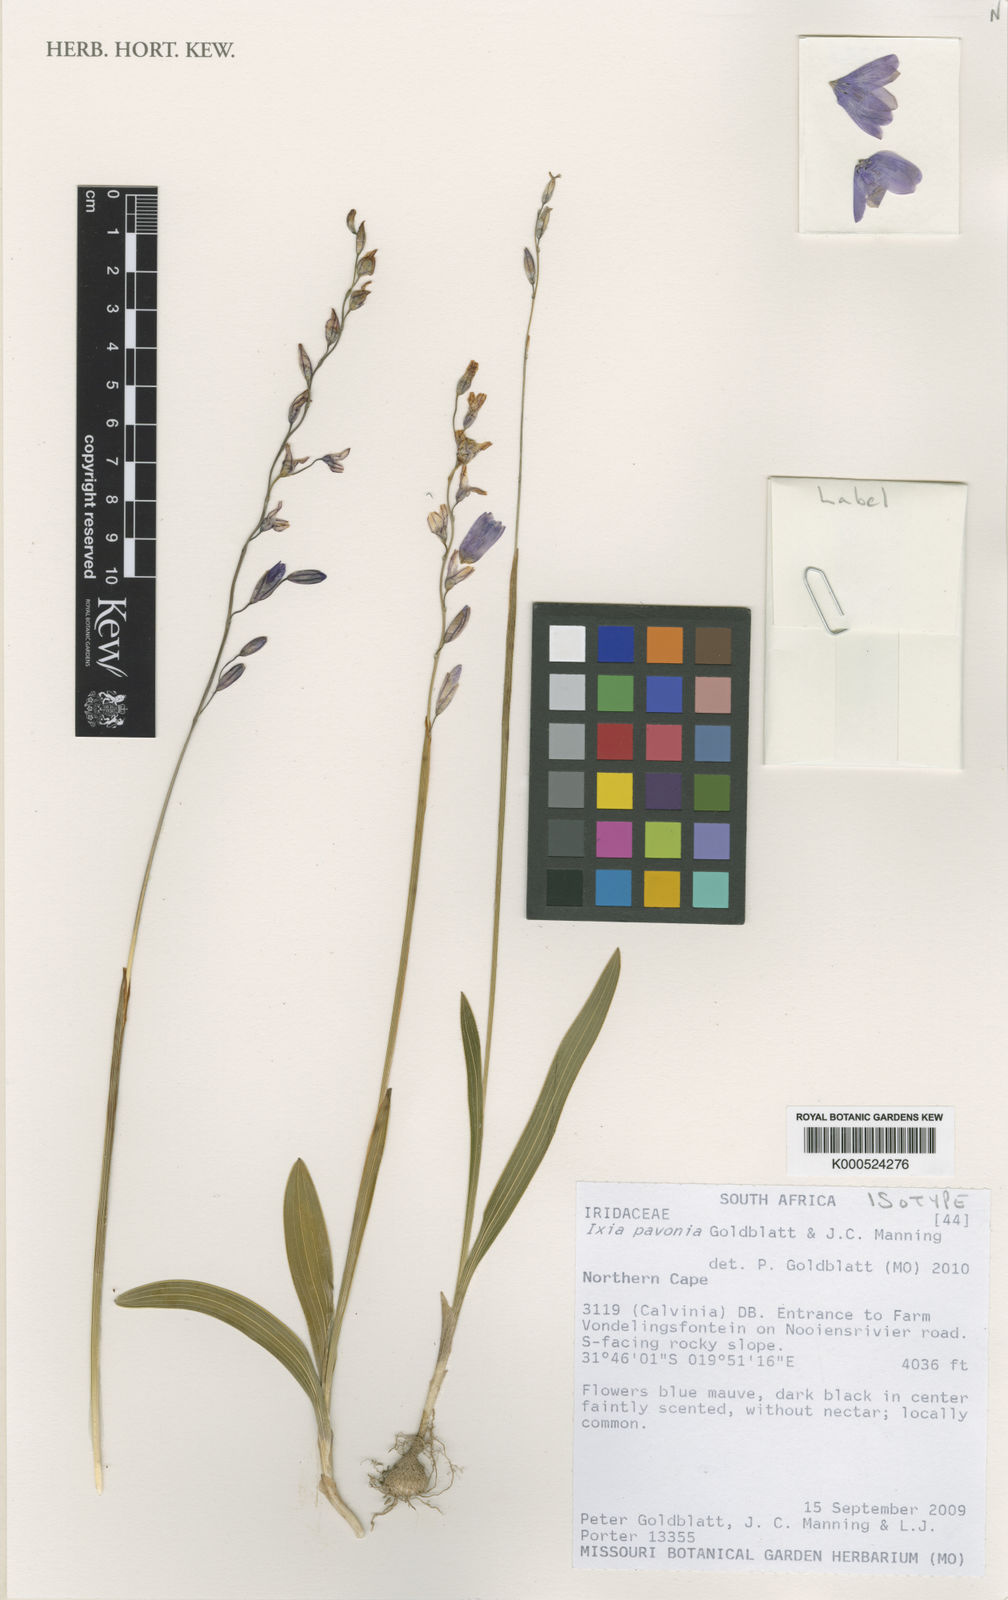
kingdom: Plantae
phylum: Tracheophyta
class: Liliopsida
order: Asparagales
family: Iridaceae
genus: Ixia
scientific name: Ixia pavonia
